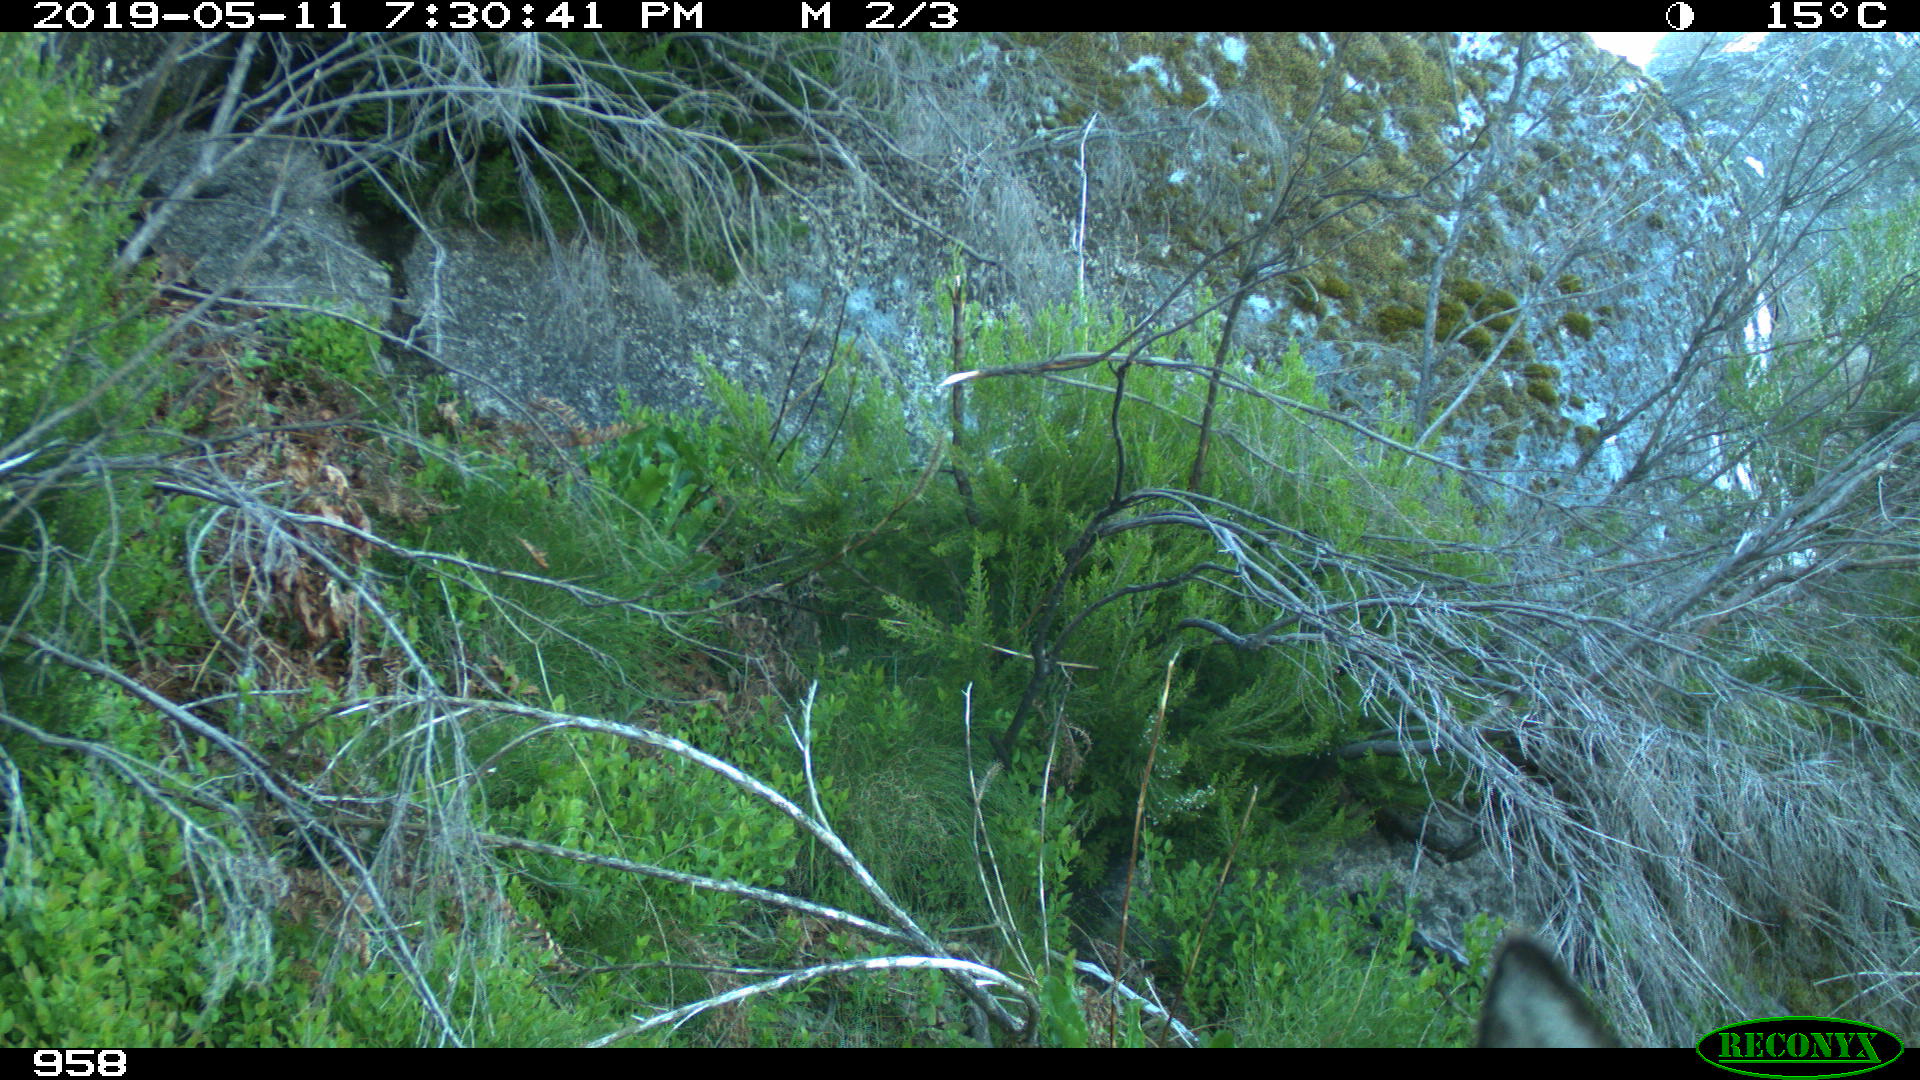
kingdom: Animalia
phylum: Chordata
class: Mammalia
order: Artiodactyla
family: Cervidae
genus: Capreolus
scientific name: Capreolus capreolus
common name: Western roe deer
